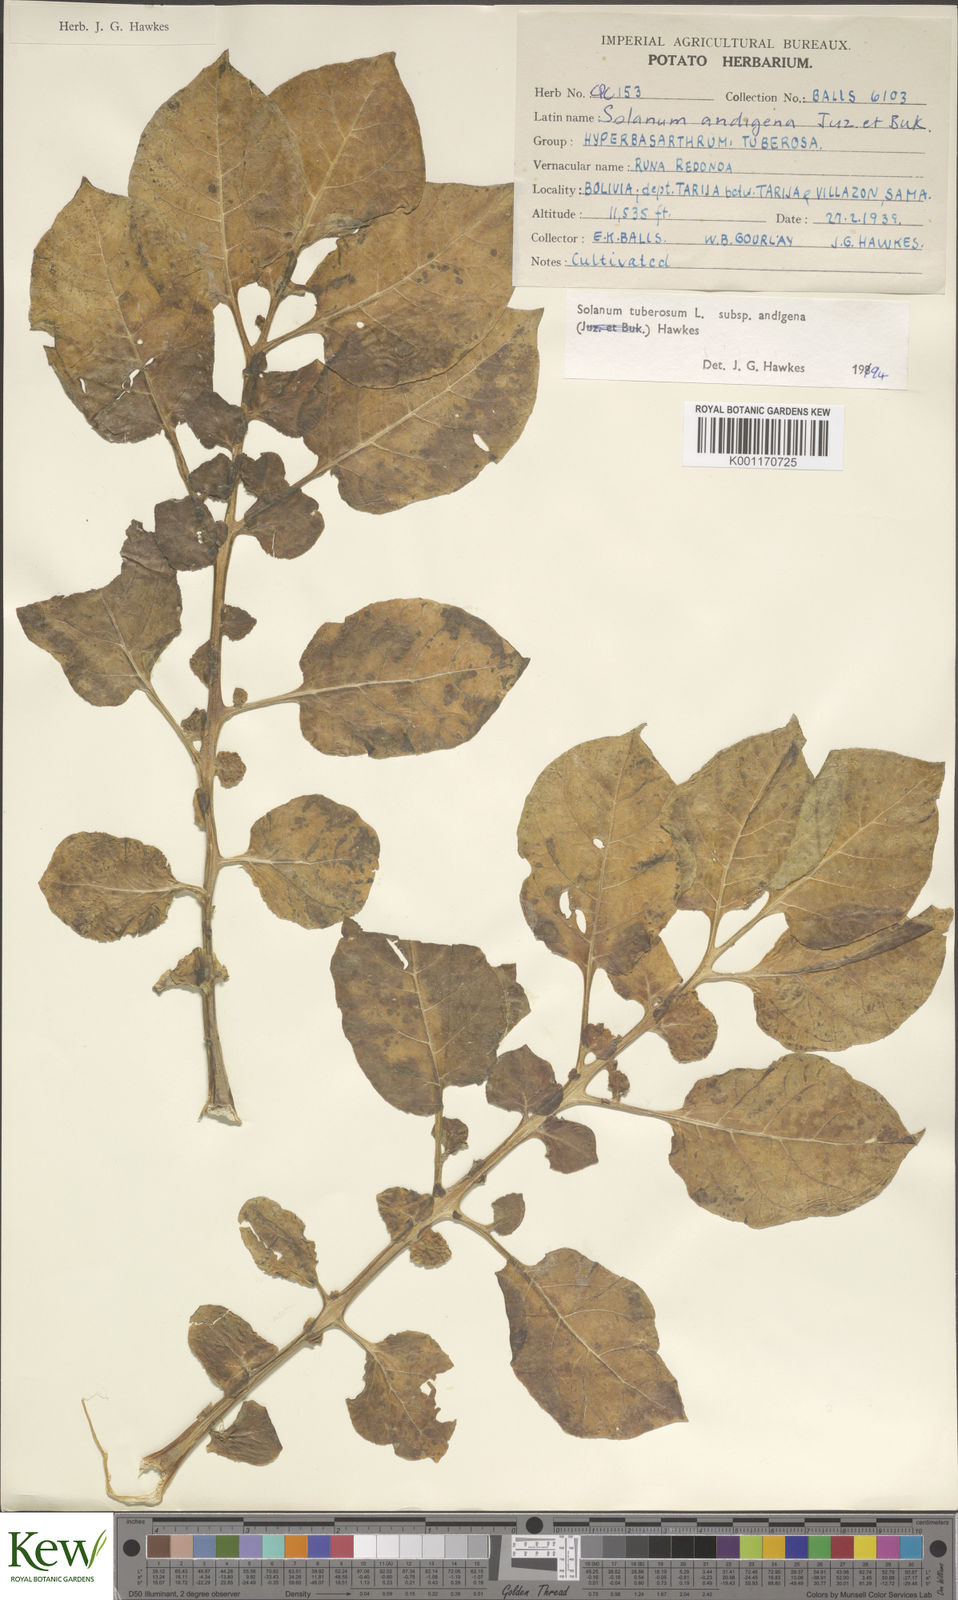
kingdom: Plantae
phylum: Tracheophyta
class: Magnoliopsida
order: Solanales
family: Solanaceae
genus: Solanum
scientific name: Solanum tuberosum
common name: Potato
